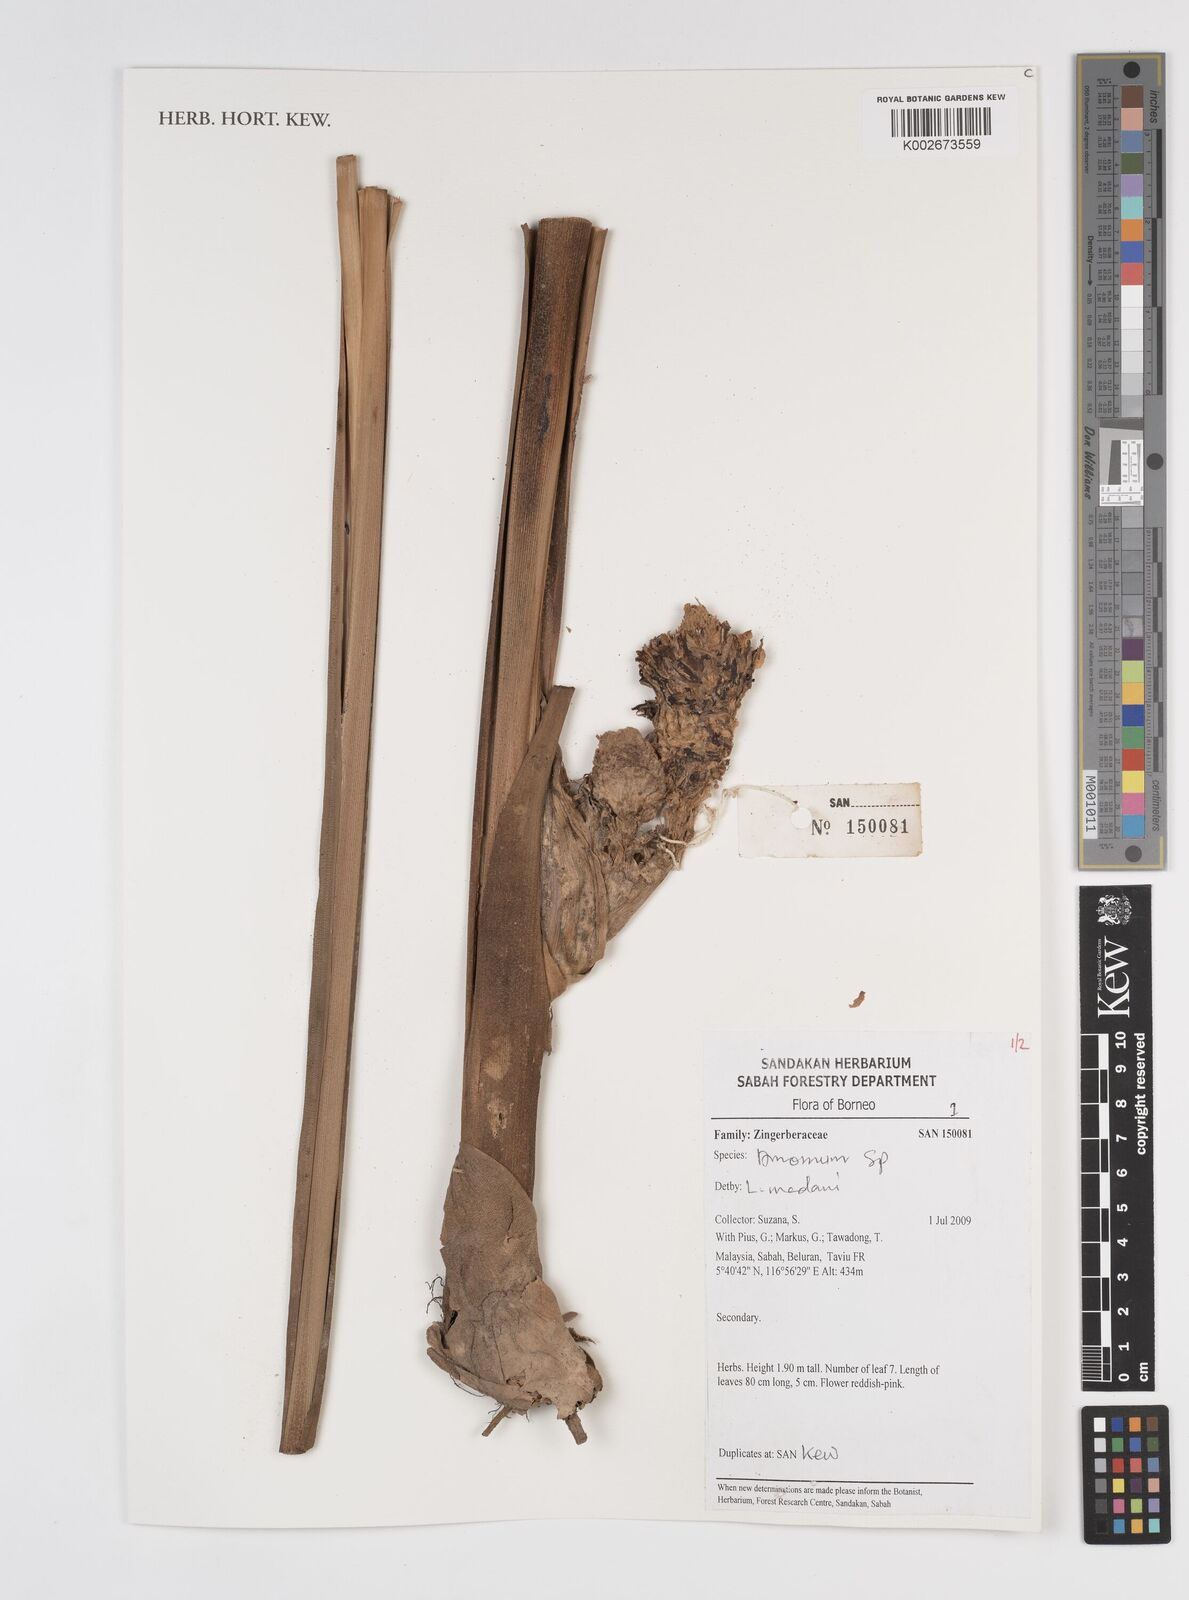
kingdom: Plantae
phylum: Tracheophyta
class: Liliopsida
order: Zingiberales
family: Zingiberaceae
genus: Amomum
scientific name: Amomum
